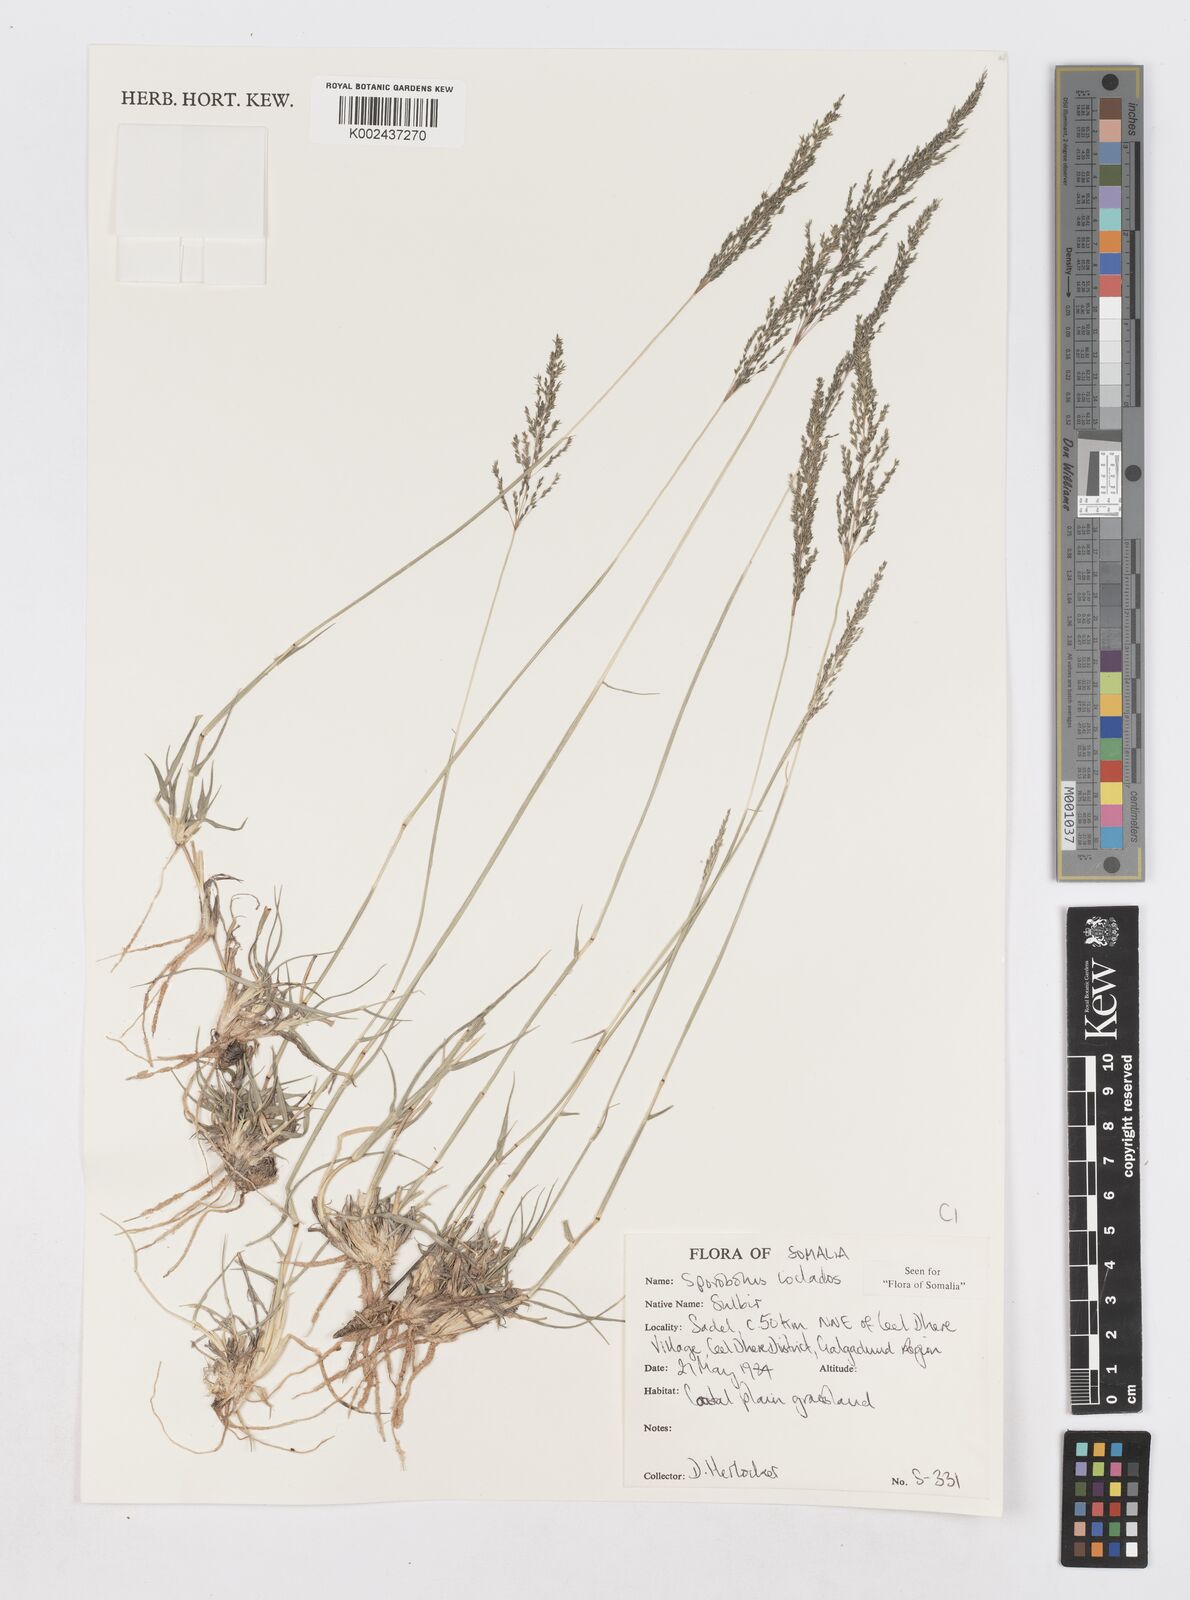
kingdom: Plantae
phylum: Tracheophyta
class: Liliopsida
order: Poales
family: Poaceae
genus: Sporobolus
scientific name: Sporobolus ioclados
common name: Pan dropseed
